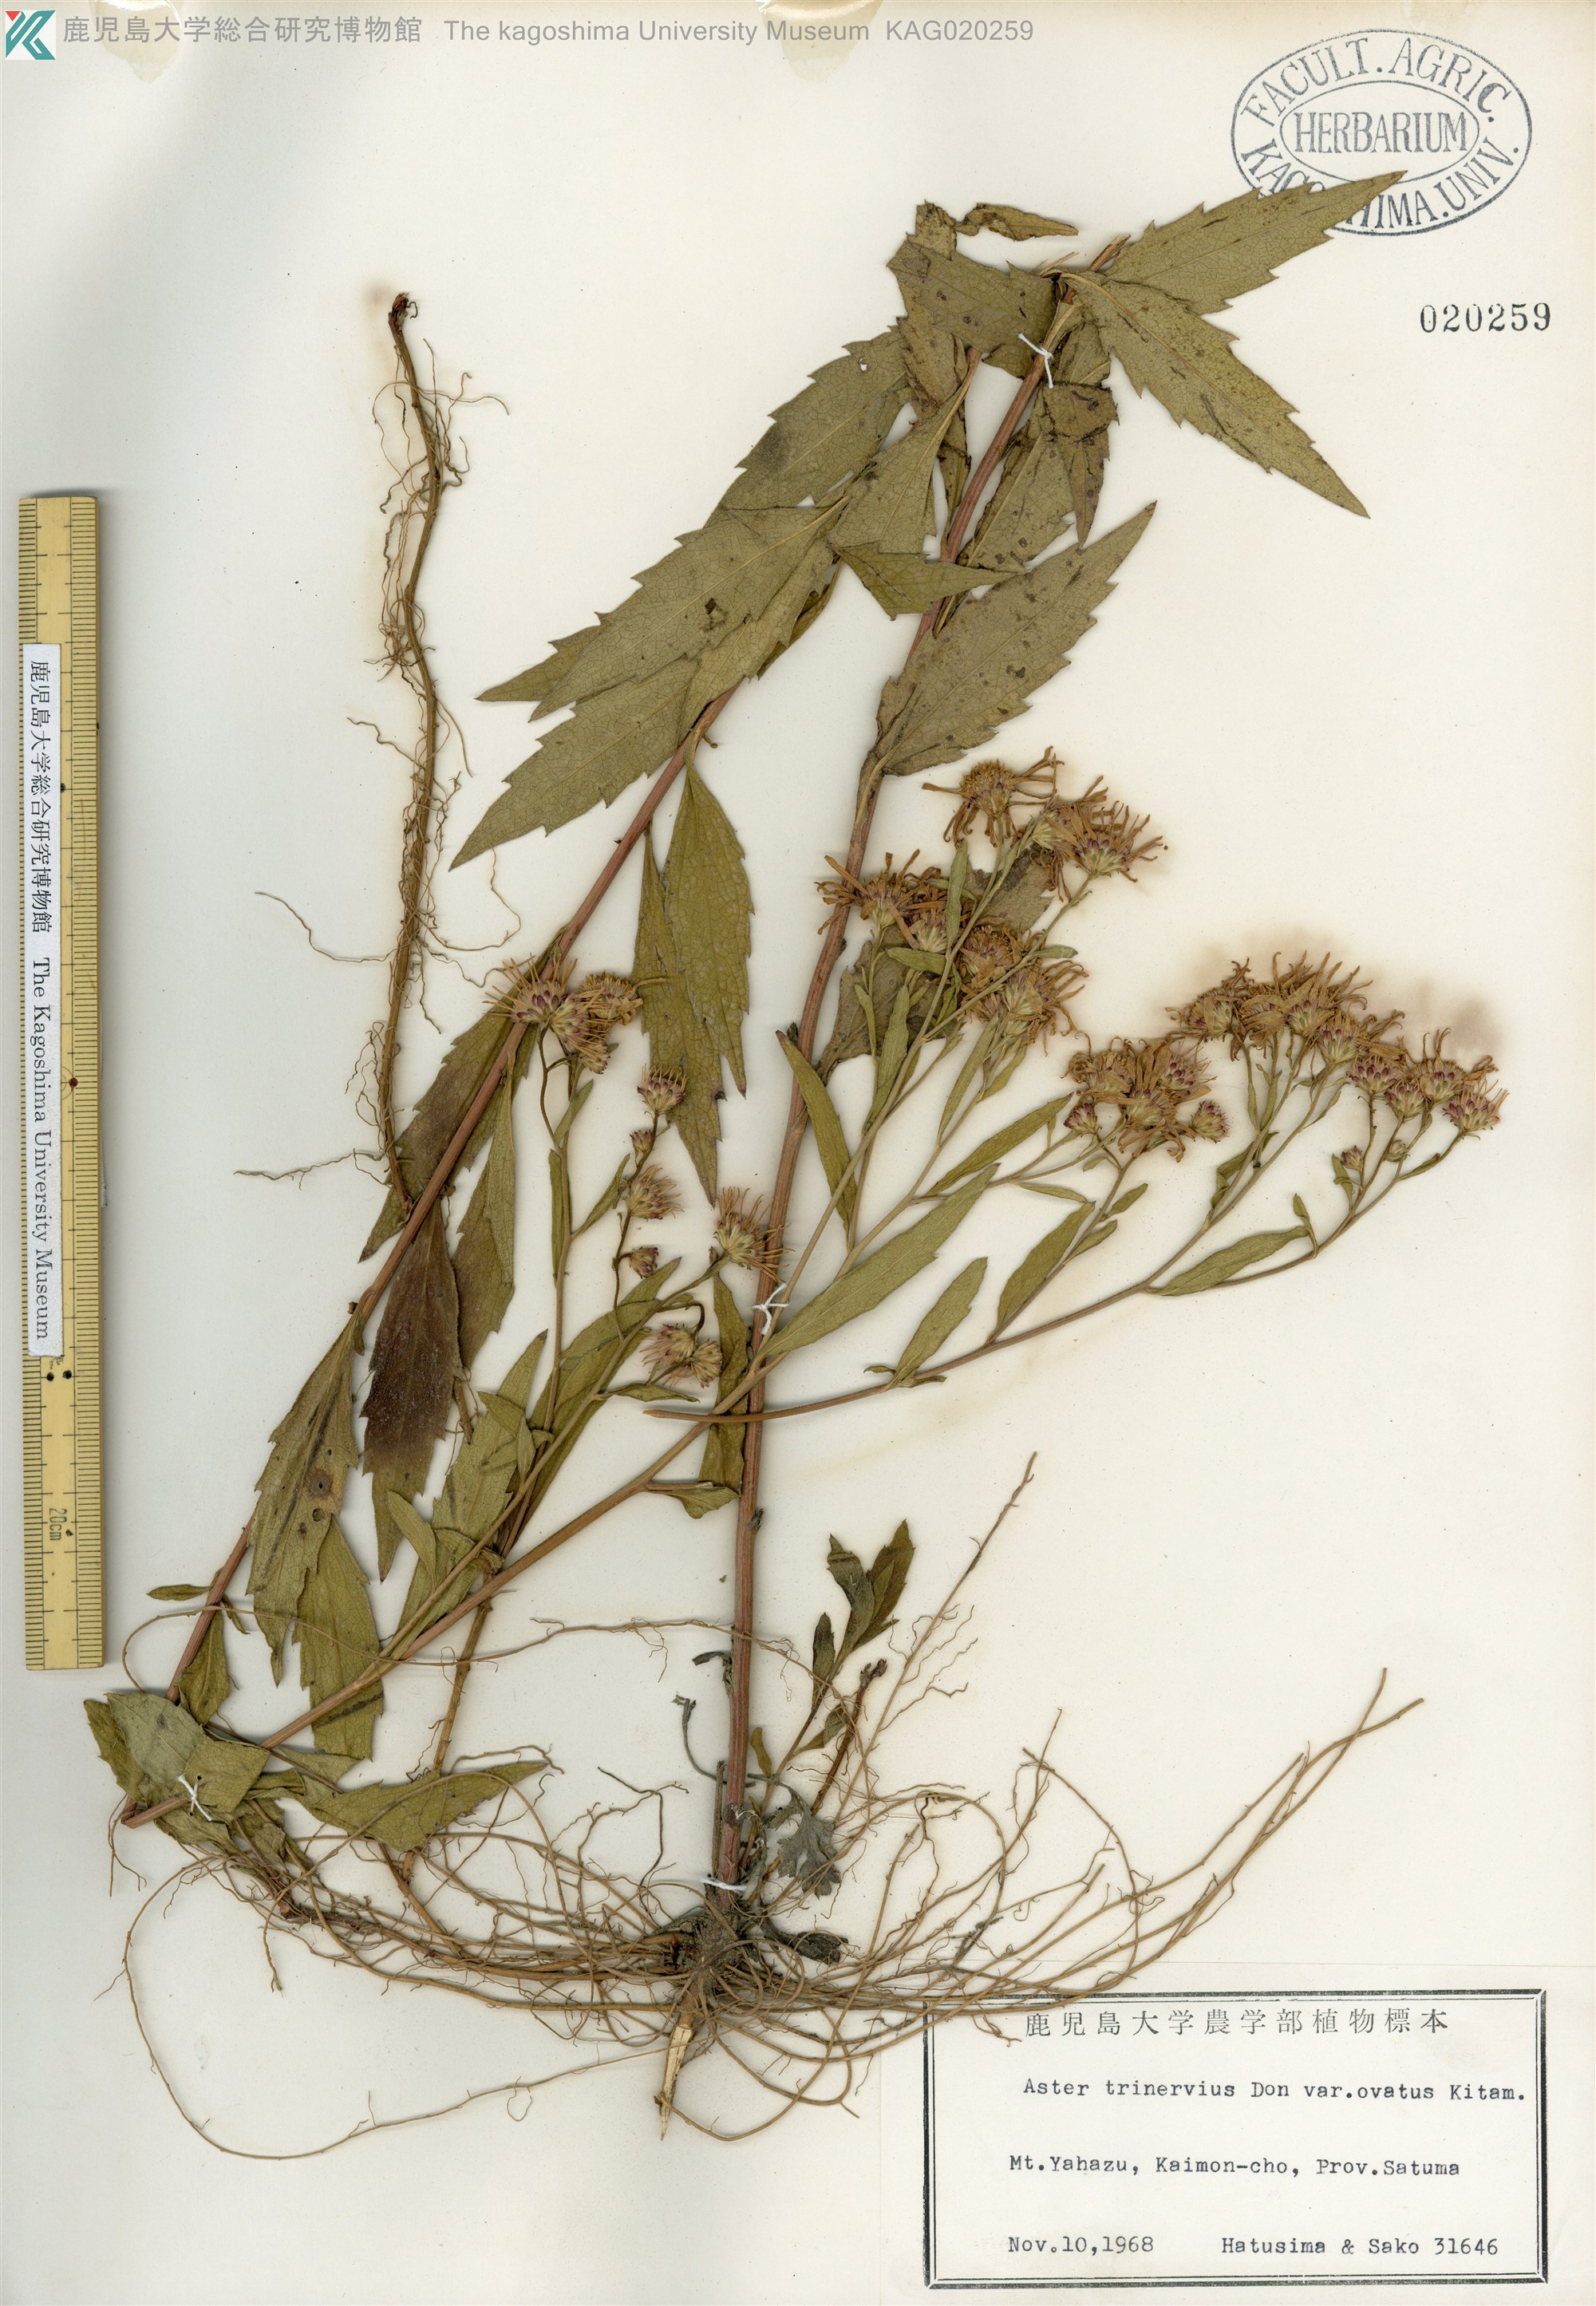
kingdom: Plantae
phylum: Tracheophyta
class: Magnoliopsida
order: Asterales
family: Asteraceae
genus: Aster
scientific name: Aster microcephalus
